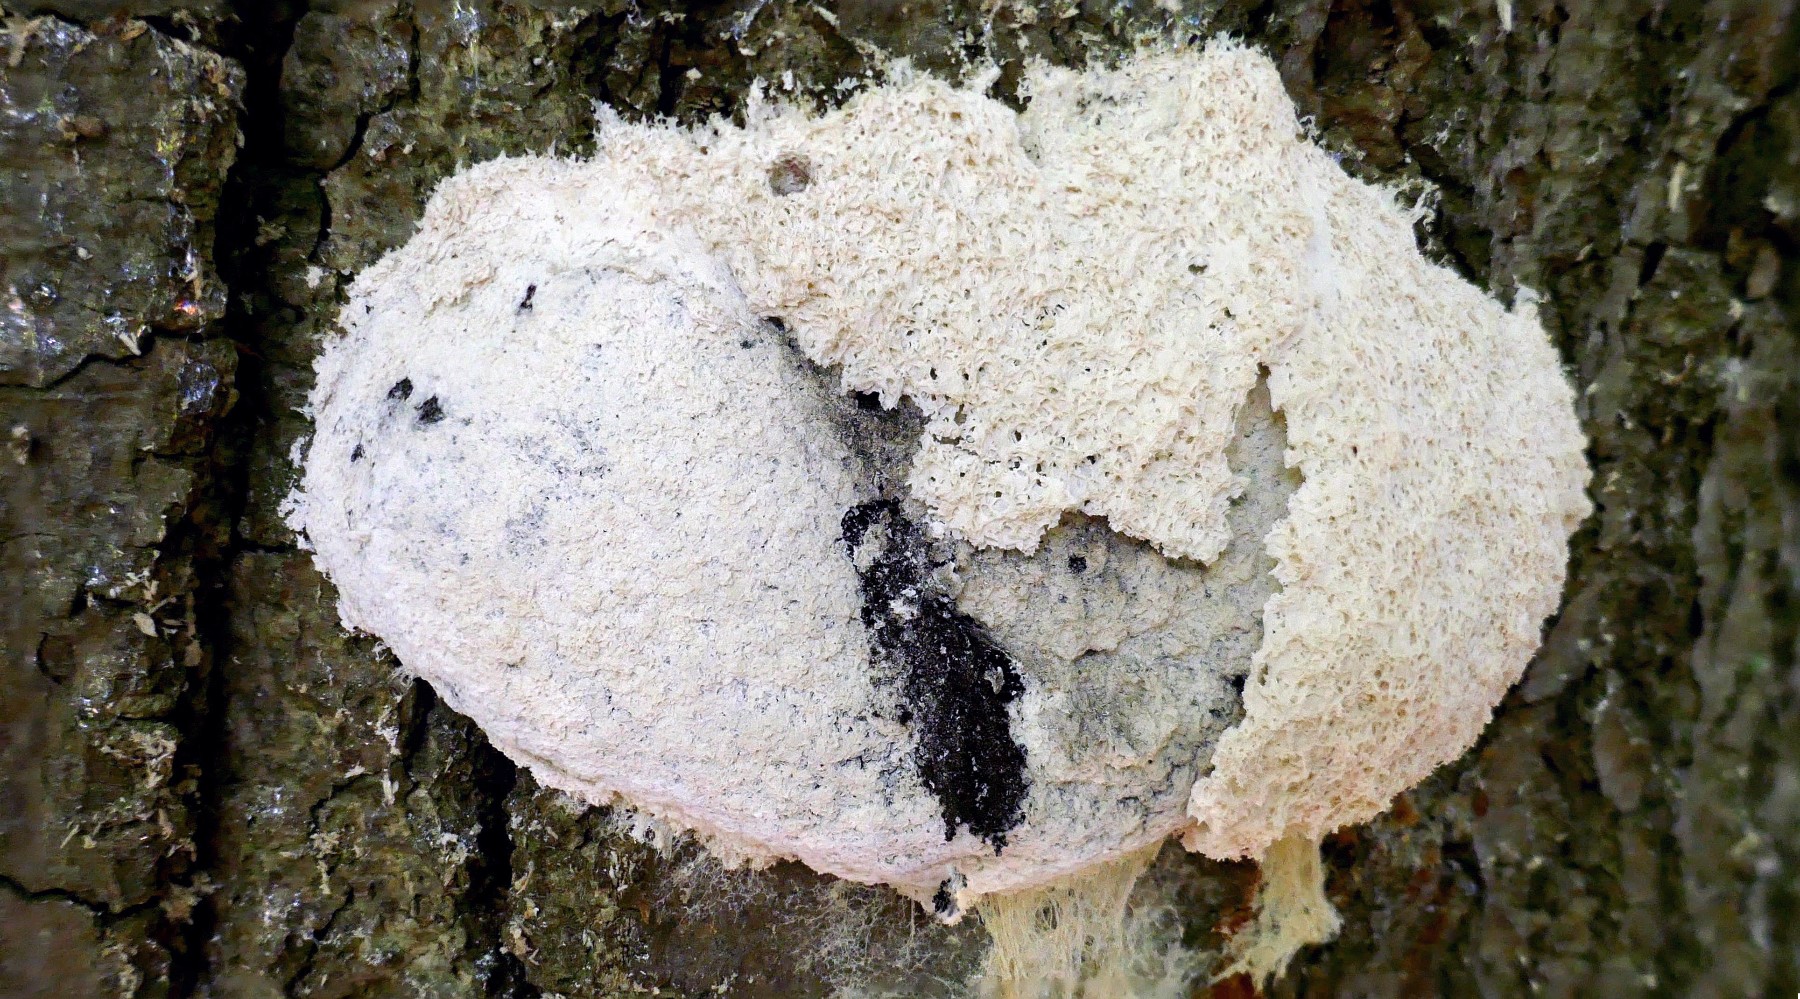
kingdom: Protozoa
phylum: Mycetozoa
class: Myxomycetes
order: Physarales
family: Physaraceae
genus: Fuligo
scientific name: Fuligo septica
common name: gul troldsmør
